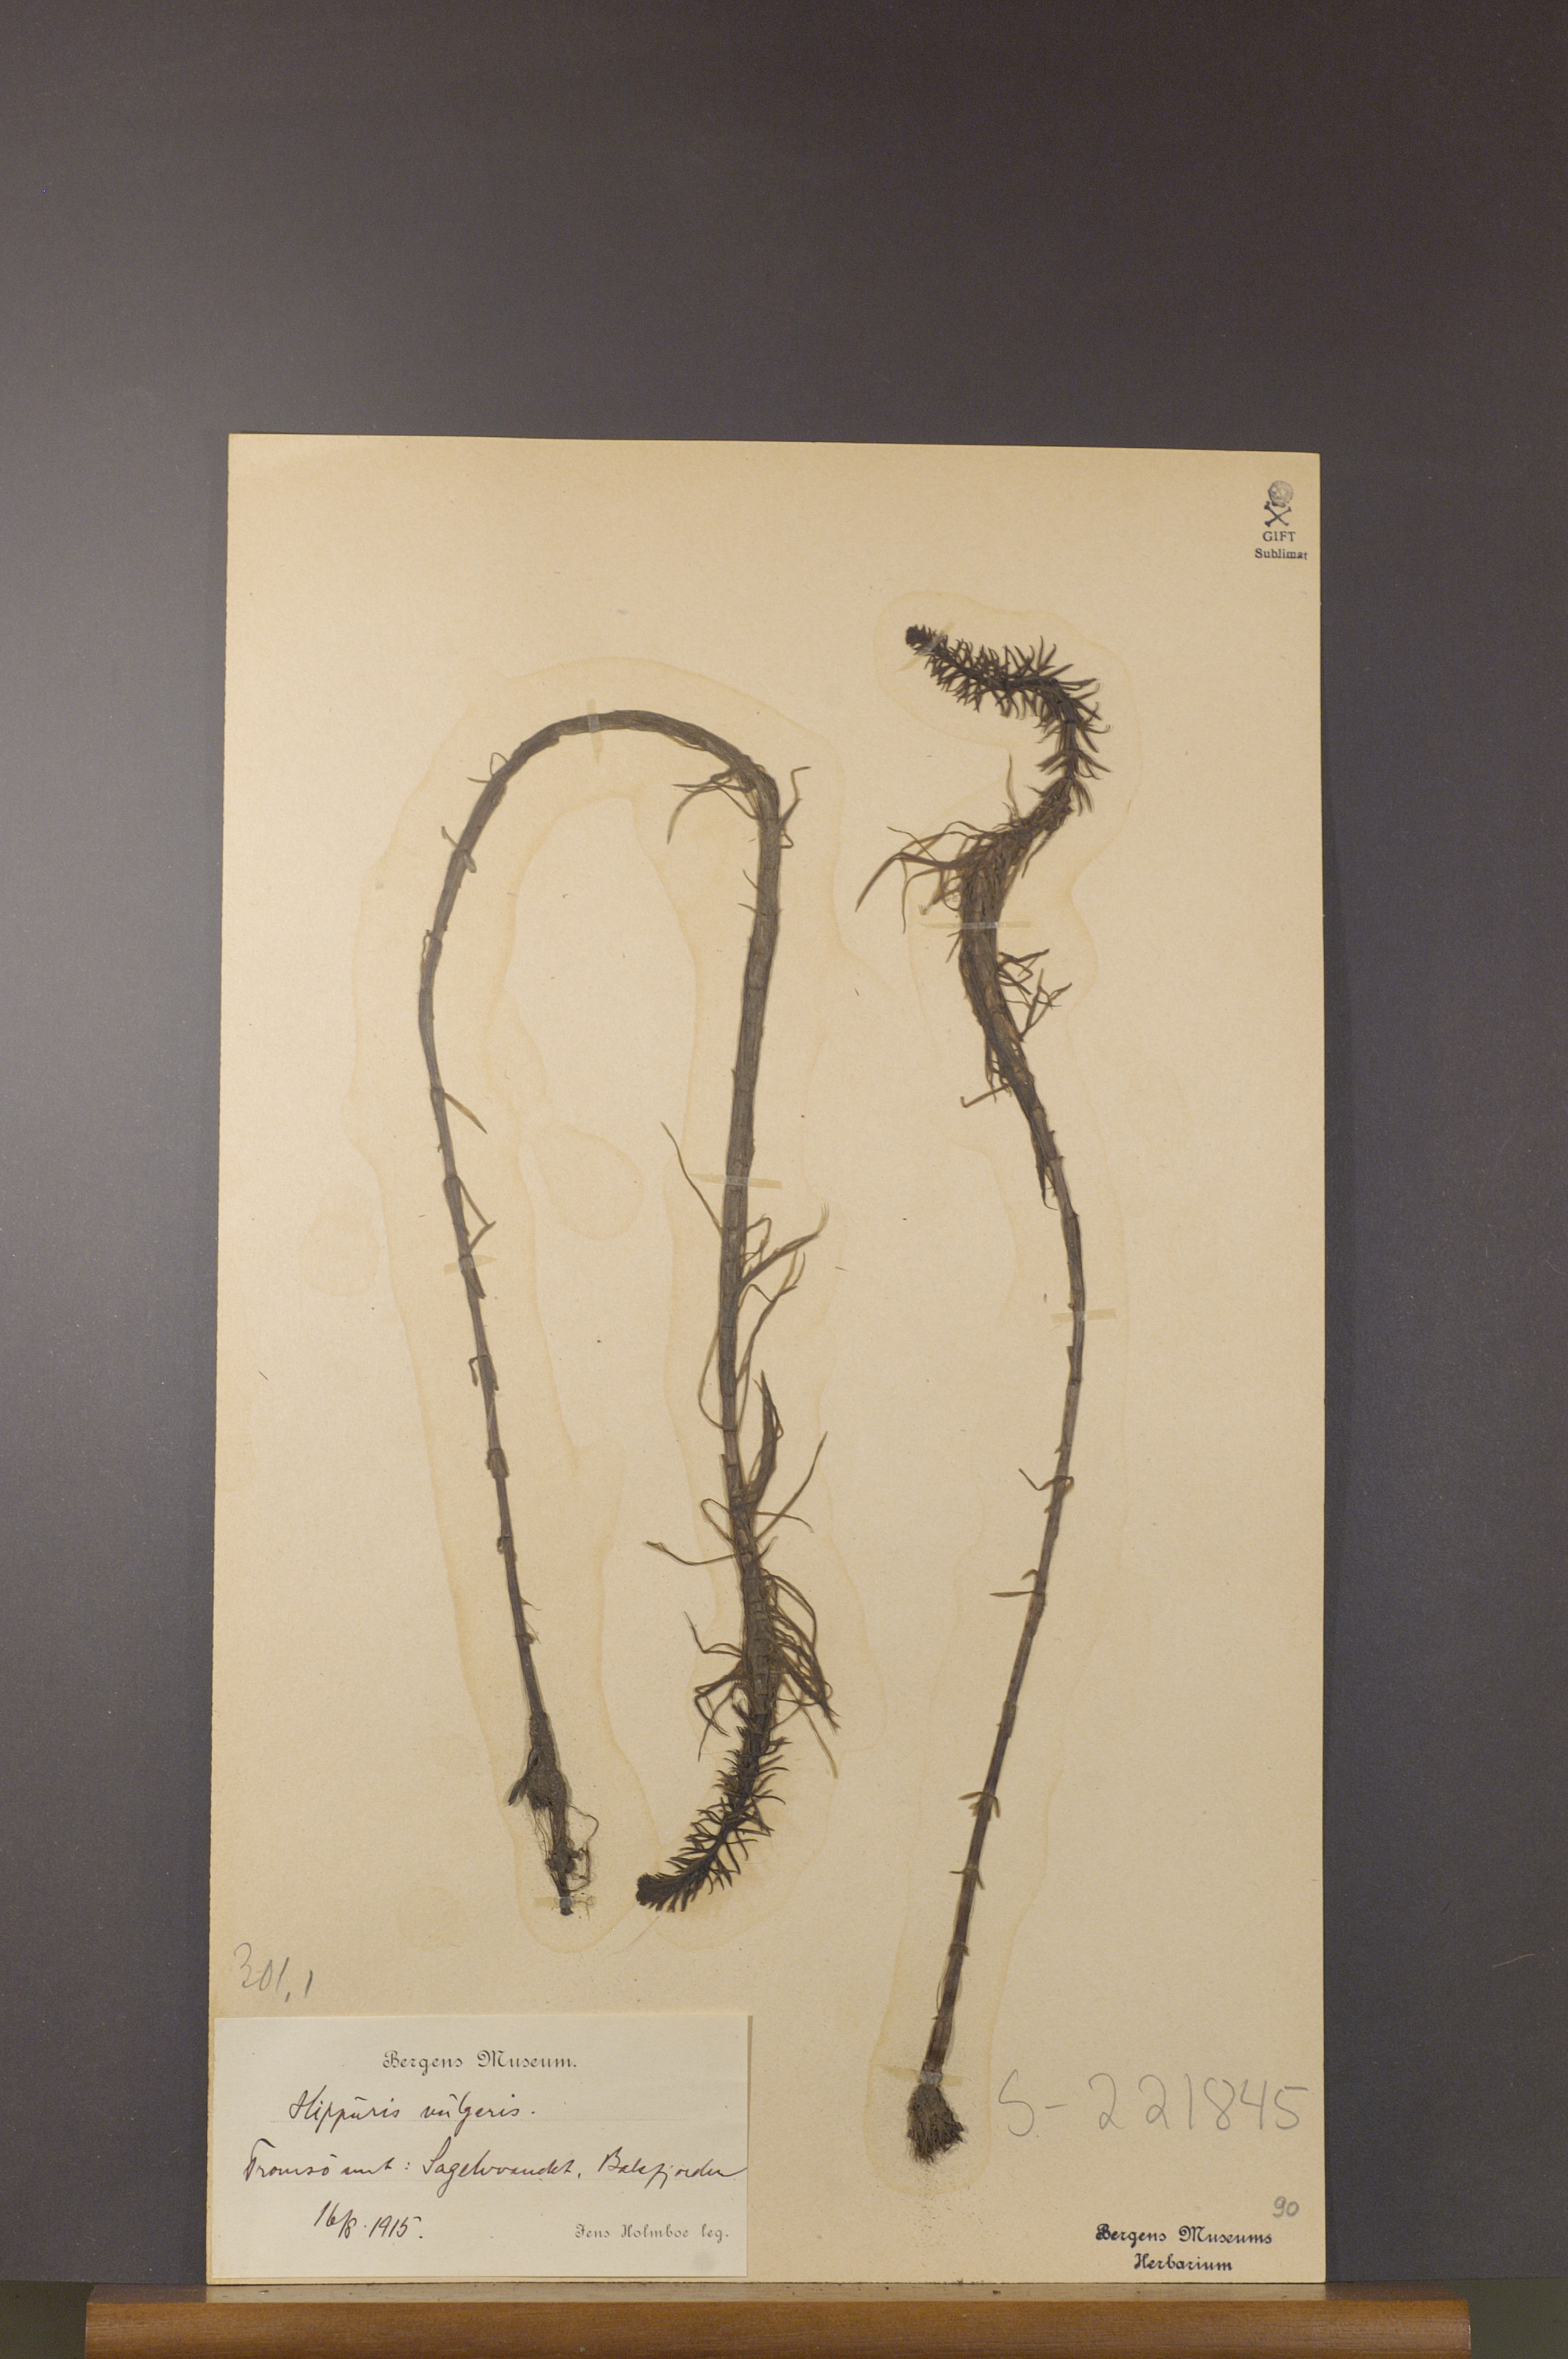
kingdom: Plantae
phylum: Tracheophyta
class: Magnoliopsida
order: Lamiales
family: Plantaginaceae
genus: Hippuris
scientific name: Hippuris vulgaris
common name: Mare's-tail
